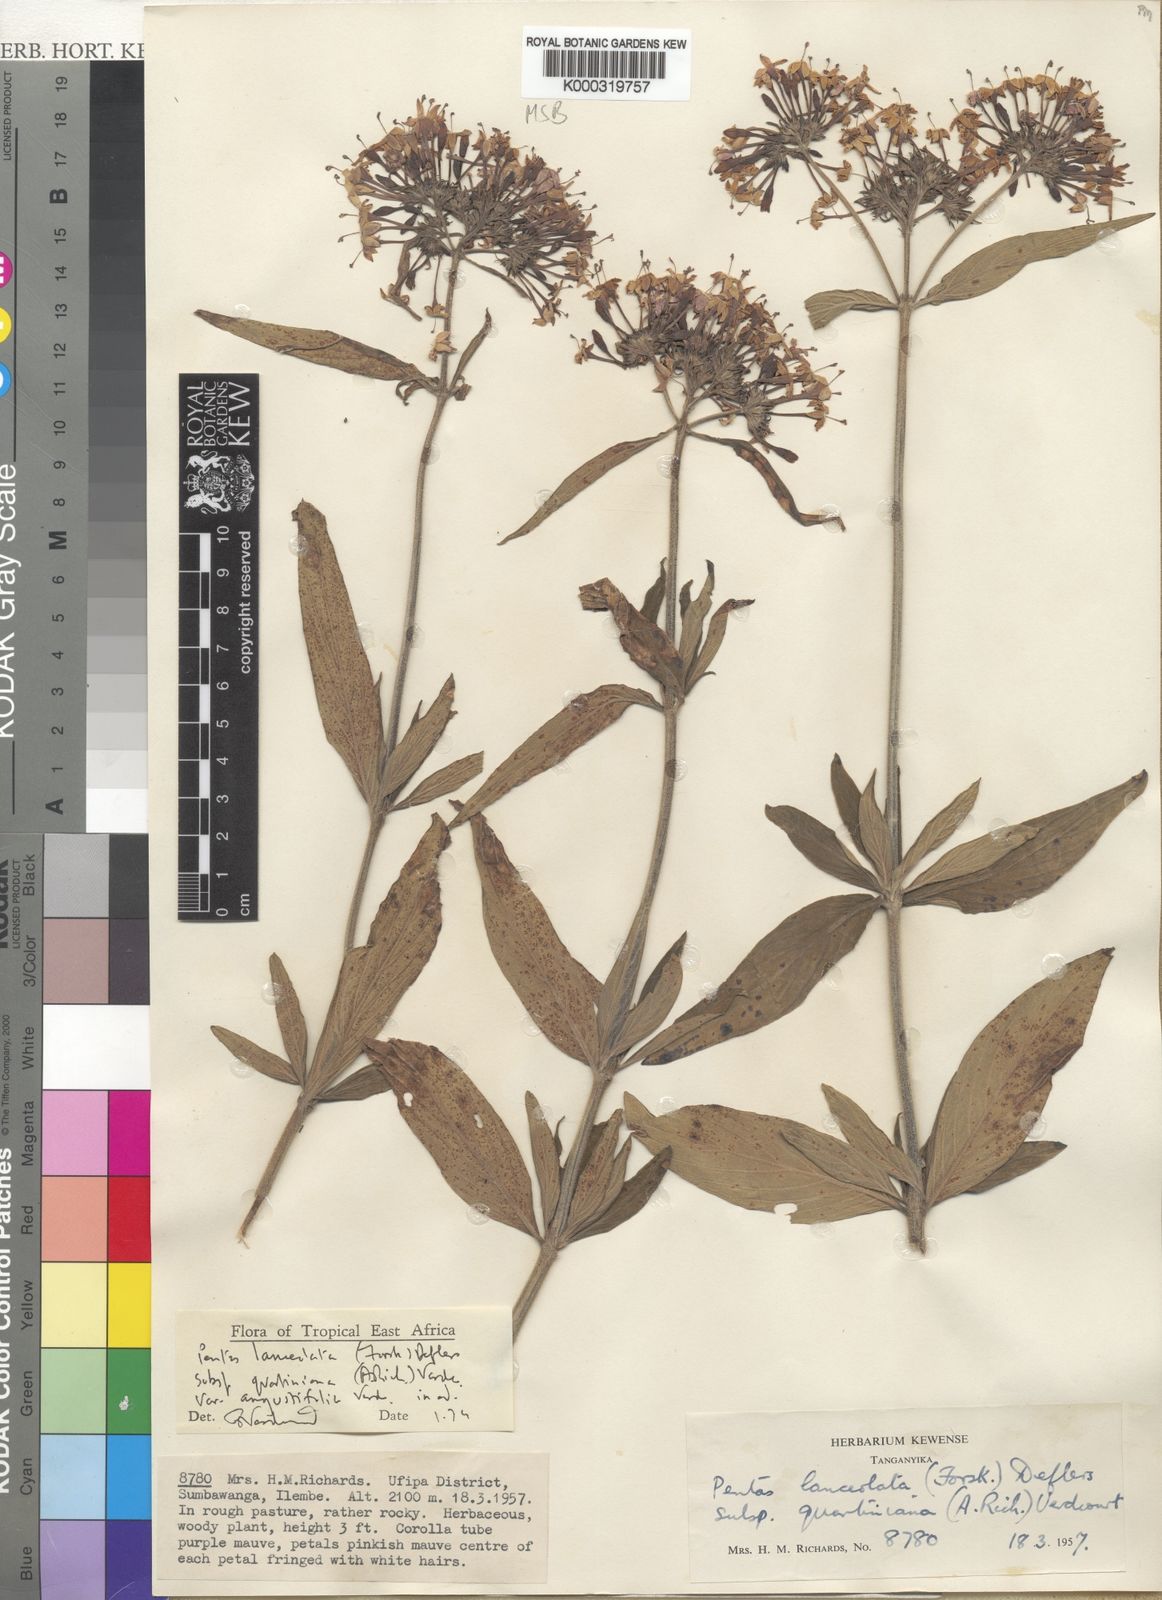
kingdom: Plantae
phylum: Tracheophyta
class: Magnoliopsida
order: Gentianales
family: Rubiaceae
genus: Pentas
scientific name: Pentas lanceolata
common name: Egyptian starcluster
